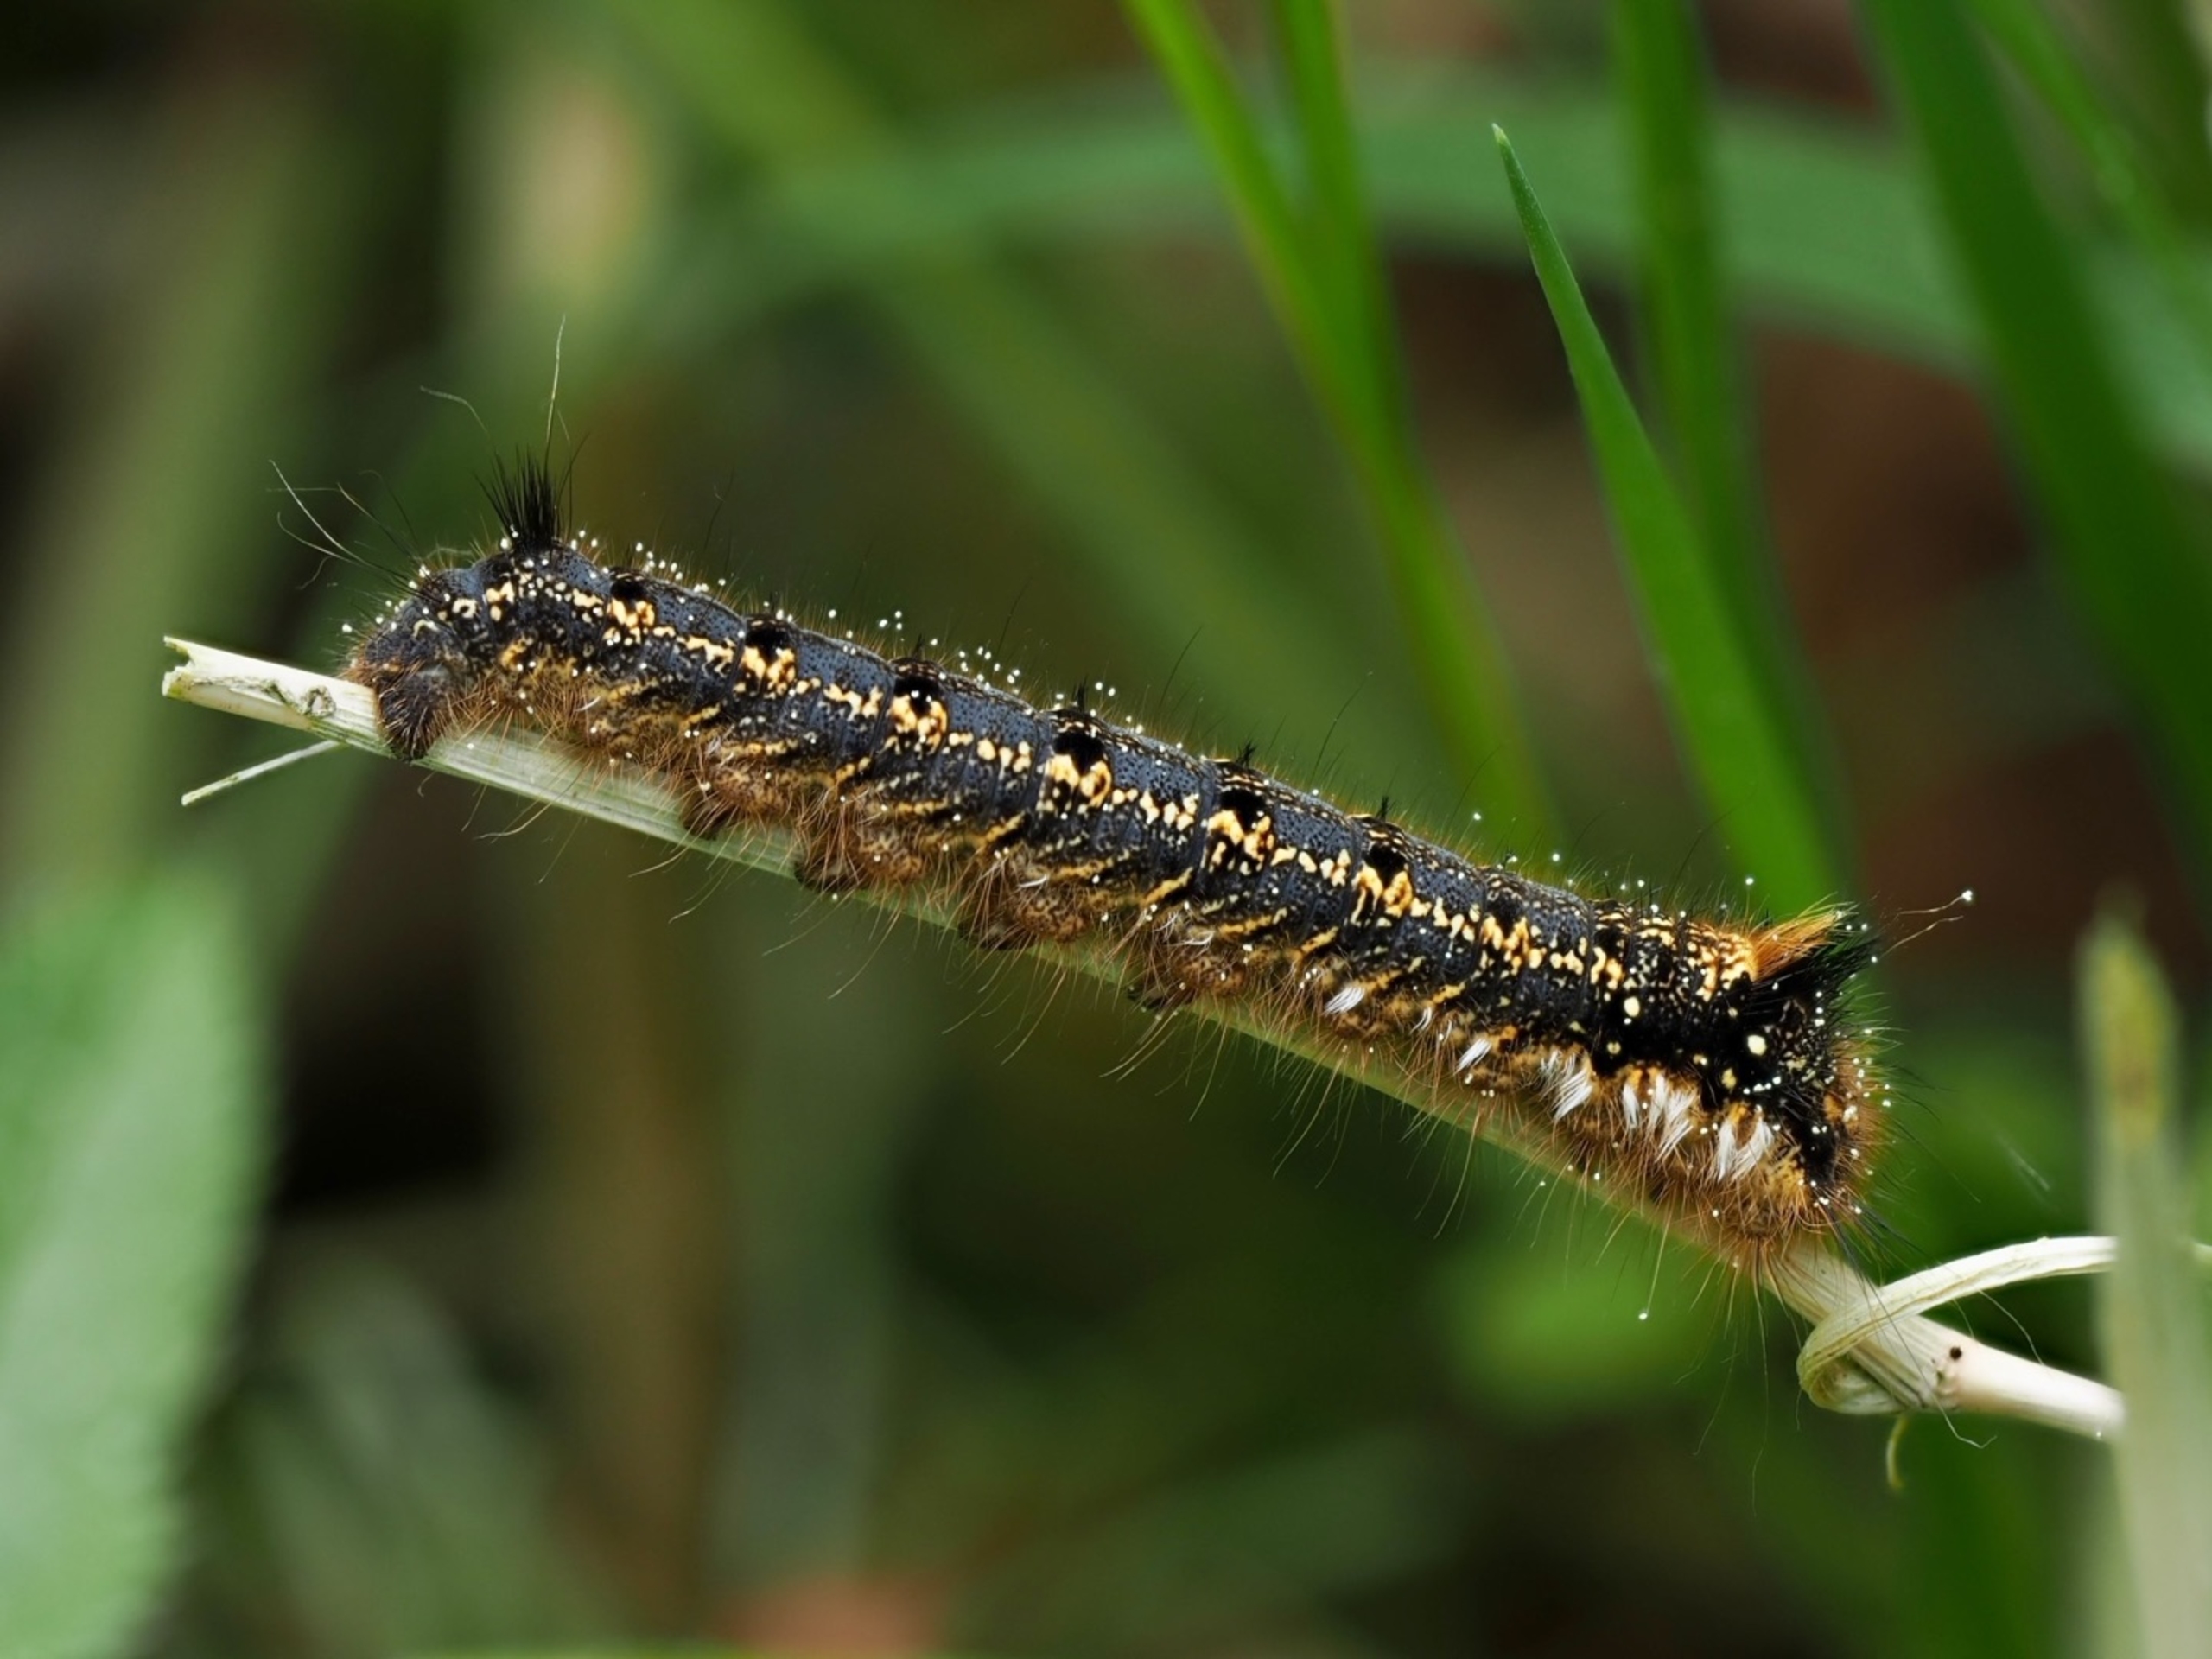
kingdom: Animalia
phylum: Arthropoda
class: Insecta
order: Lepidoptera
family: Lasiocampidae
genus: Euthrix
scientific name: Euthrix potatoria
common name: Græsspinder
